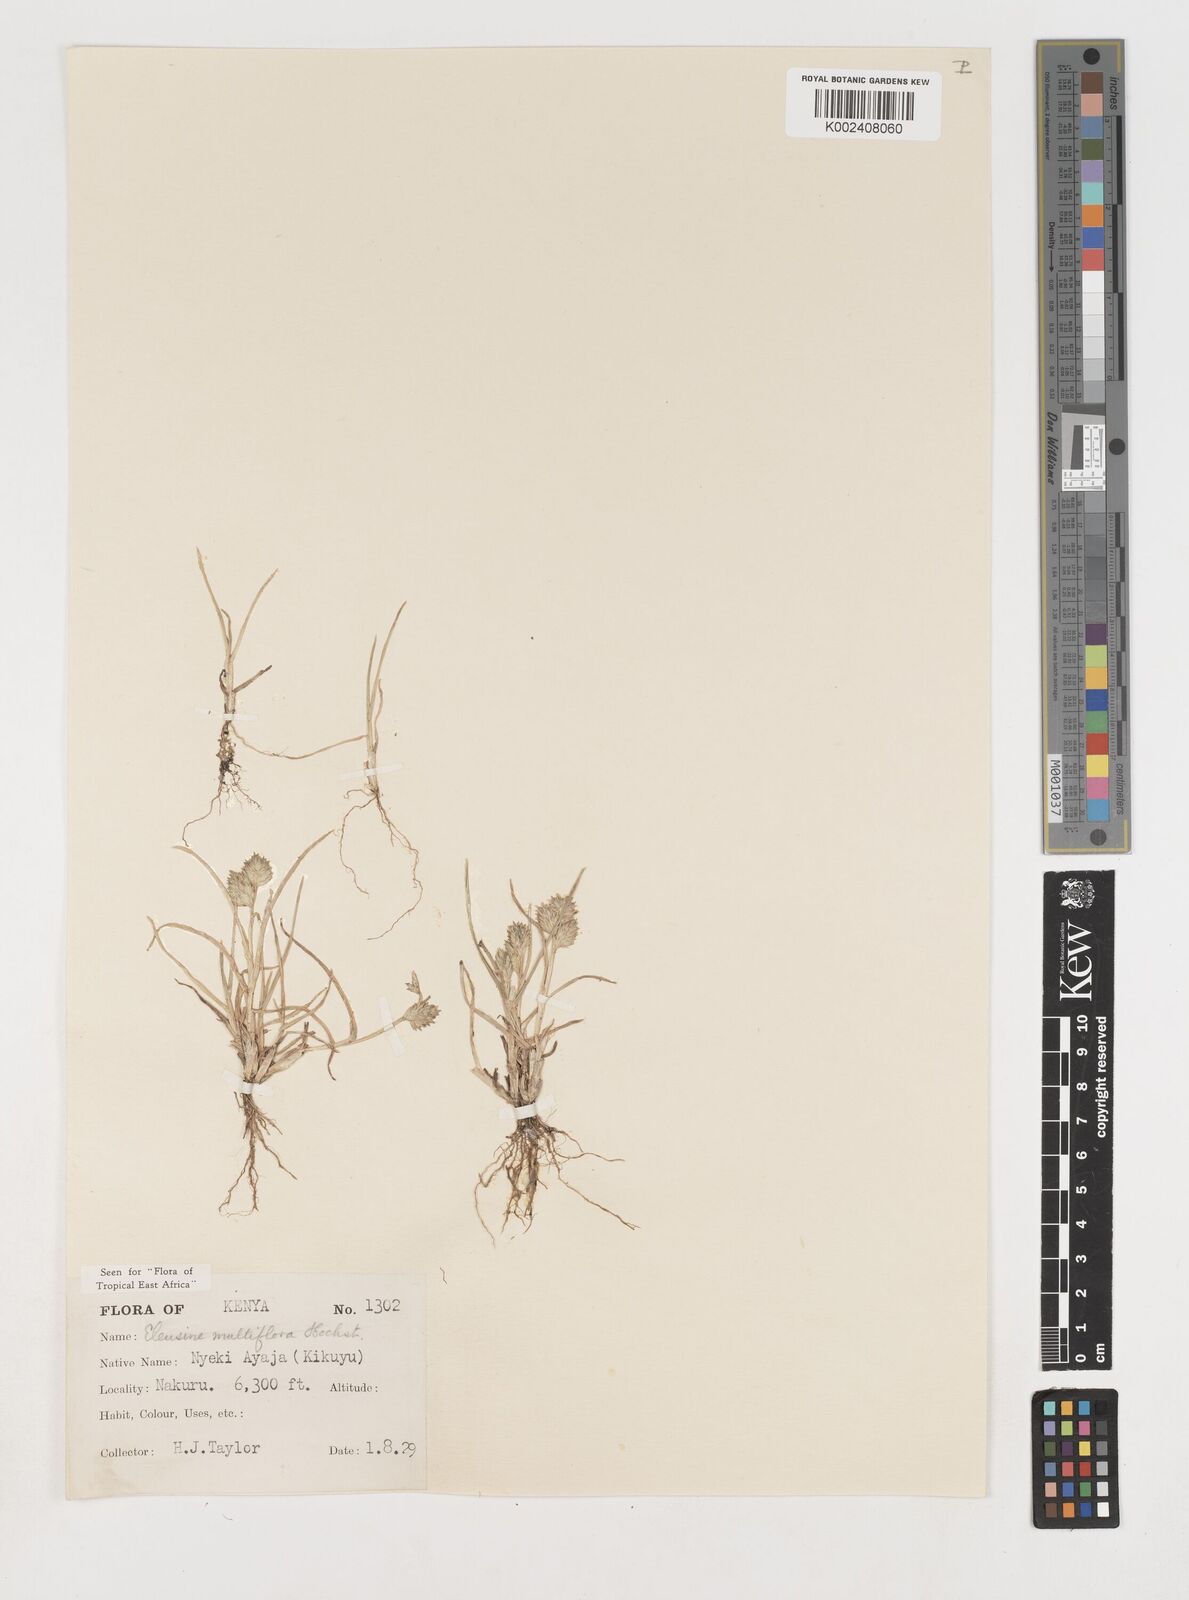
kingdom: Plantae
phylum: Tracheophyta
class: Liliopsida
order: Poales
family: Poaceae
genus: Eleusine
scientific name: Eleusine multiflora
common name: Fat-spiked yard-grass
